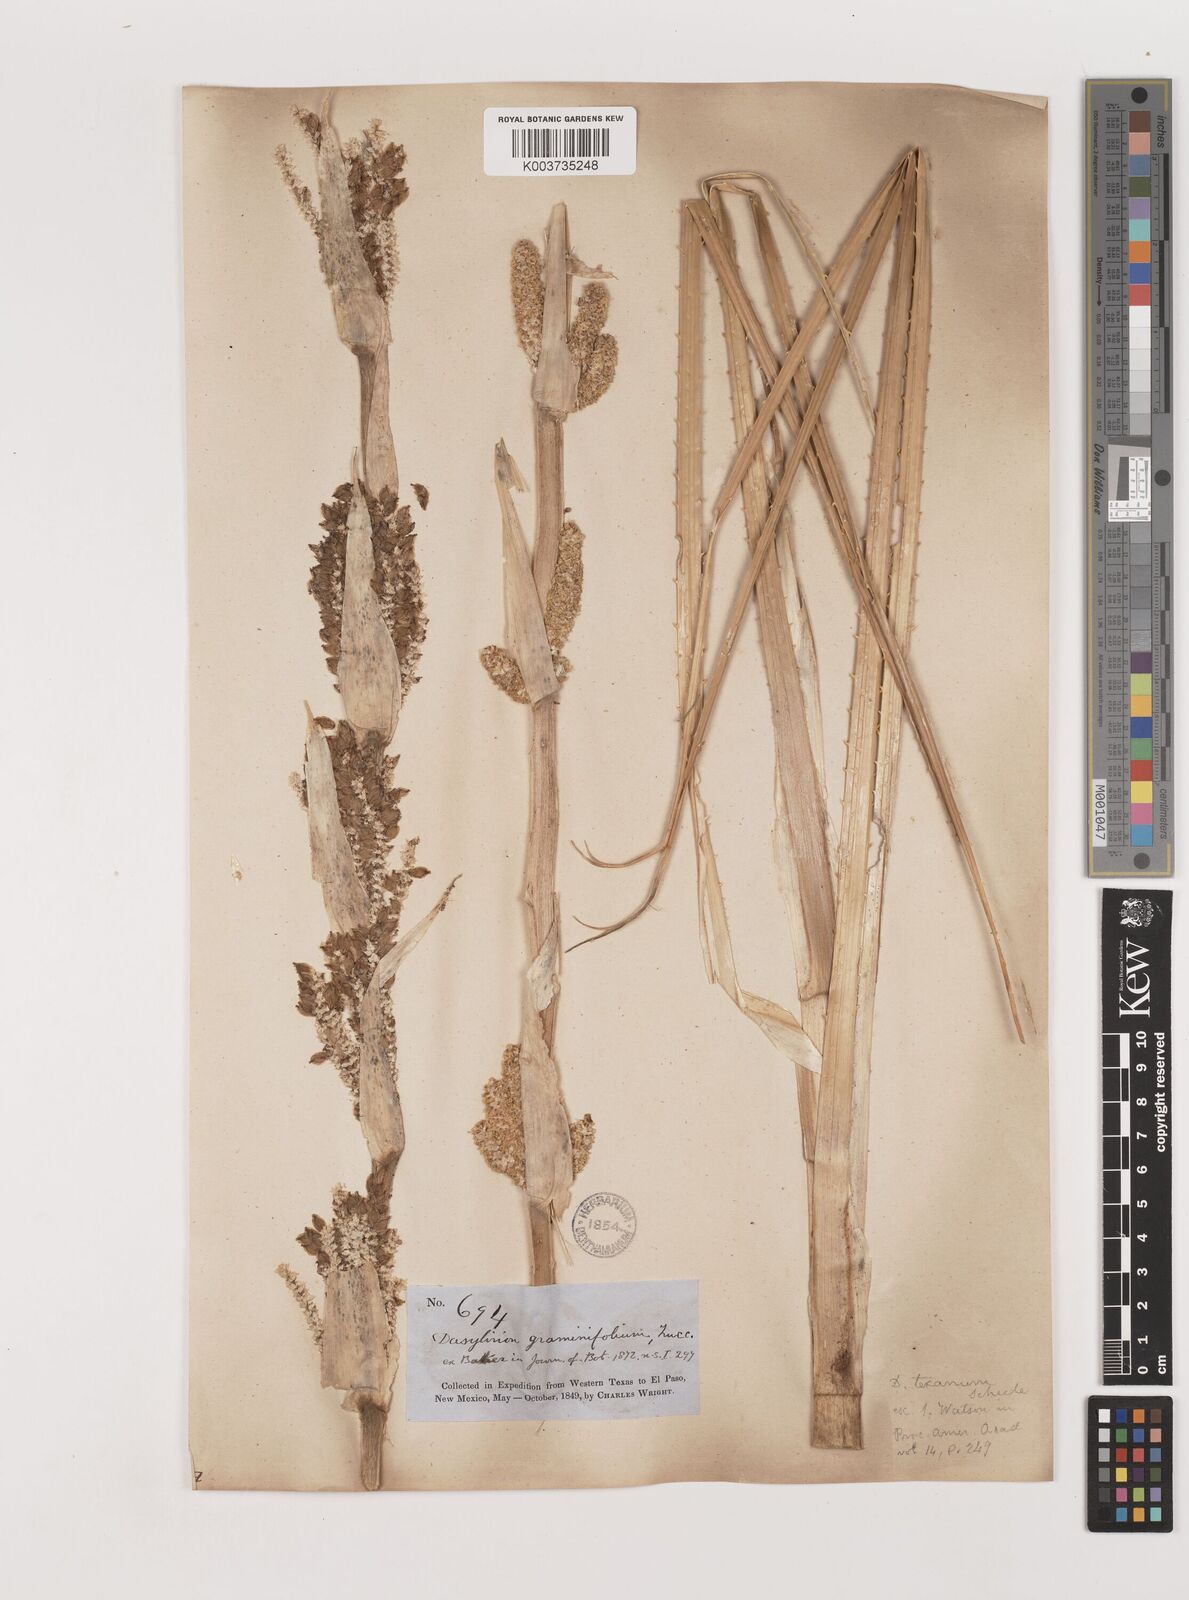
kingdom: Plantae
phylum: Tracheophyta
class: Liliopsida
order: Asparagales
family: Asparagaceae
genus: Dasylirion
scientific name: Dasylirion texanum
